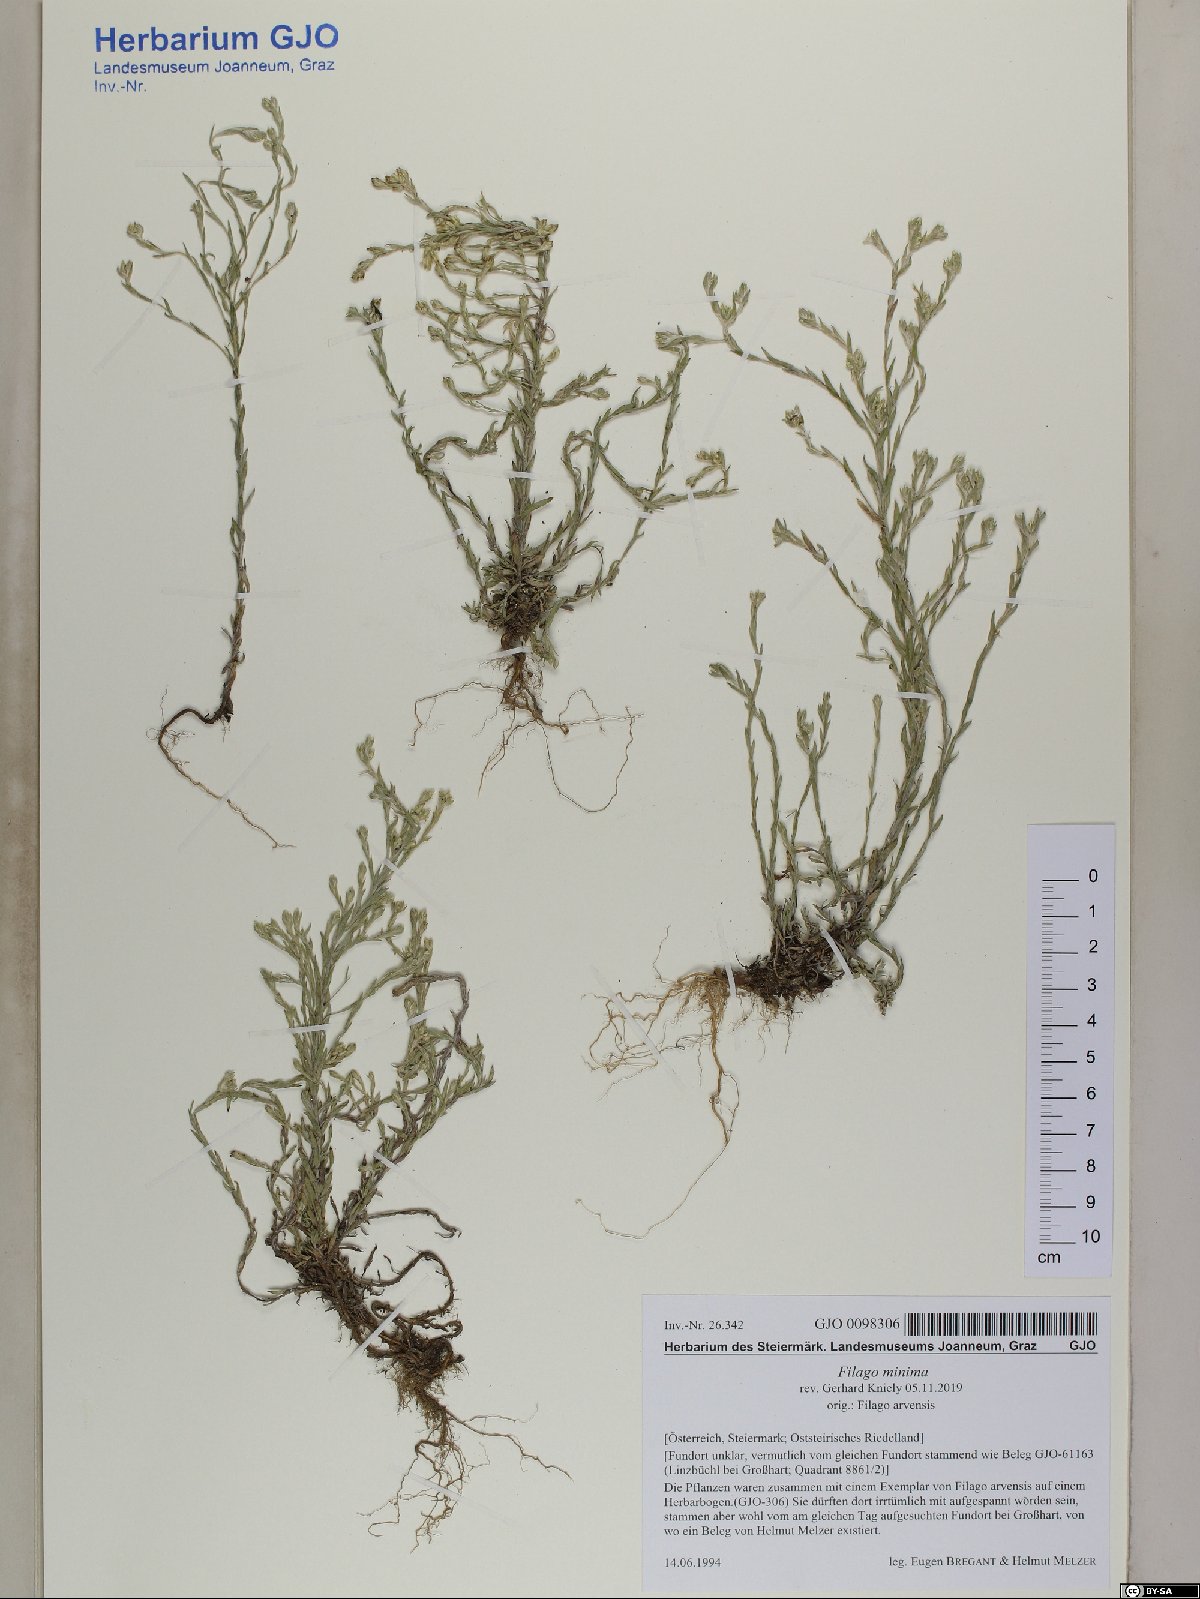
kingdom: Plantae
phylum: Tracheophyta
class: Magnoliopsida
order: Asterales
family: Asteraceae
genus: Logfia
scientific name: Logfia minima
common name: Little cottonrose
